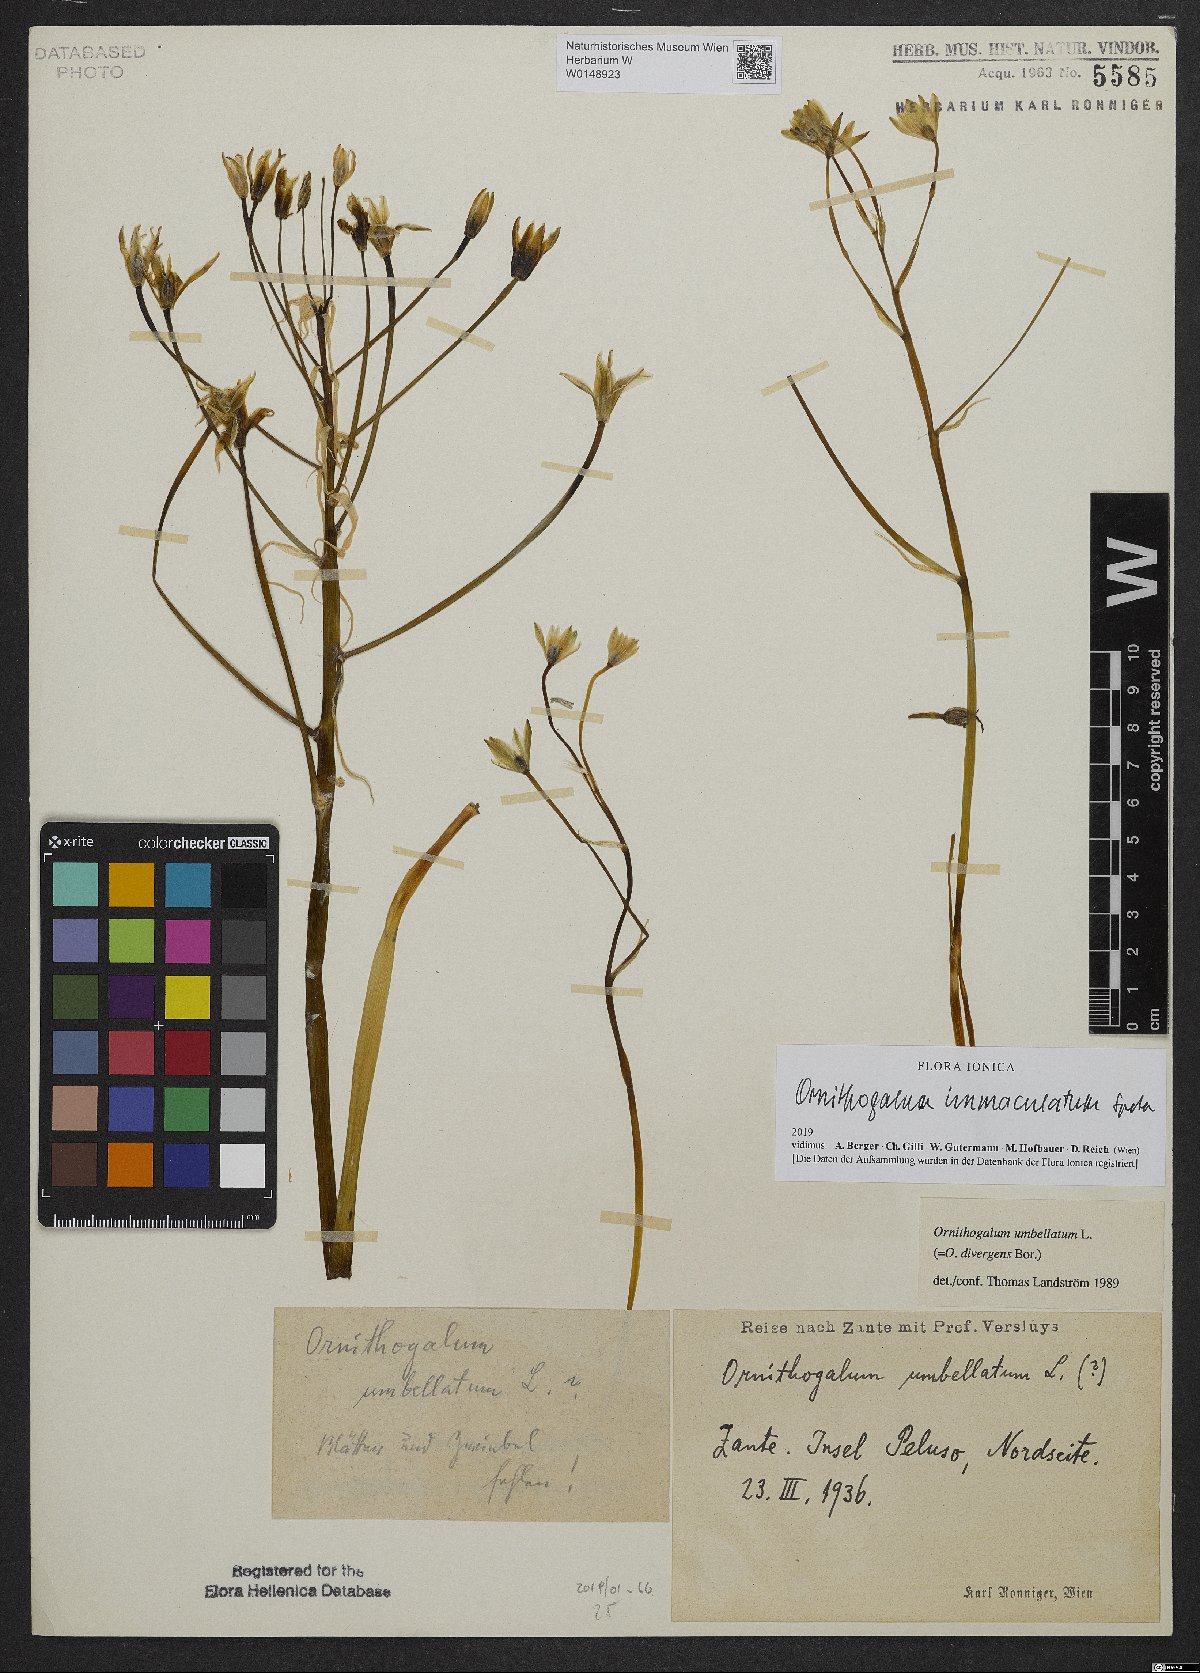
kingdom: Plantae
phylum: Tracheophyta
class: Liliopsida
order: Asparagales
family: Asparagaceae
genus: Ornithogalum
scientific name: Ornithogalum immaculatum
